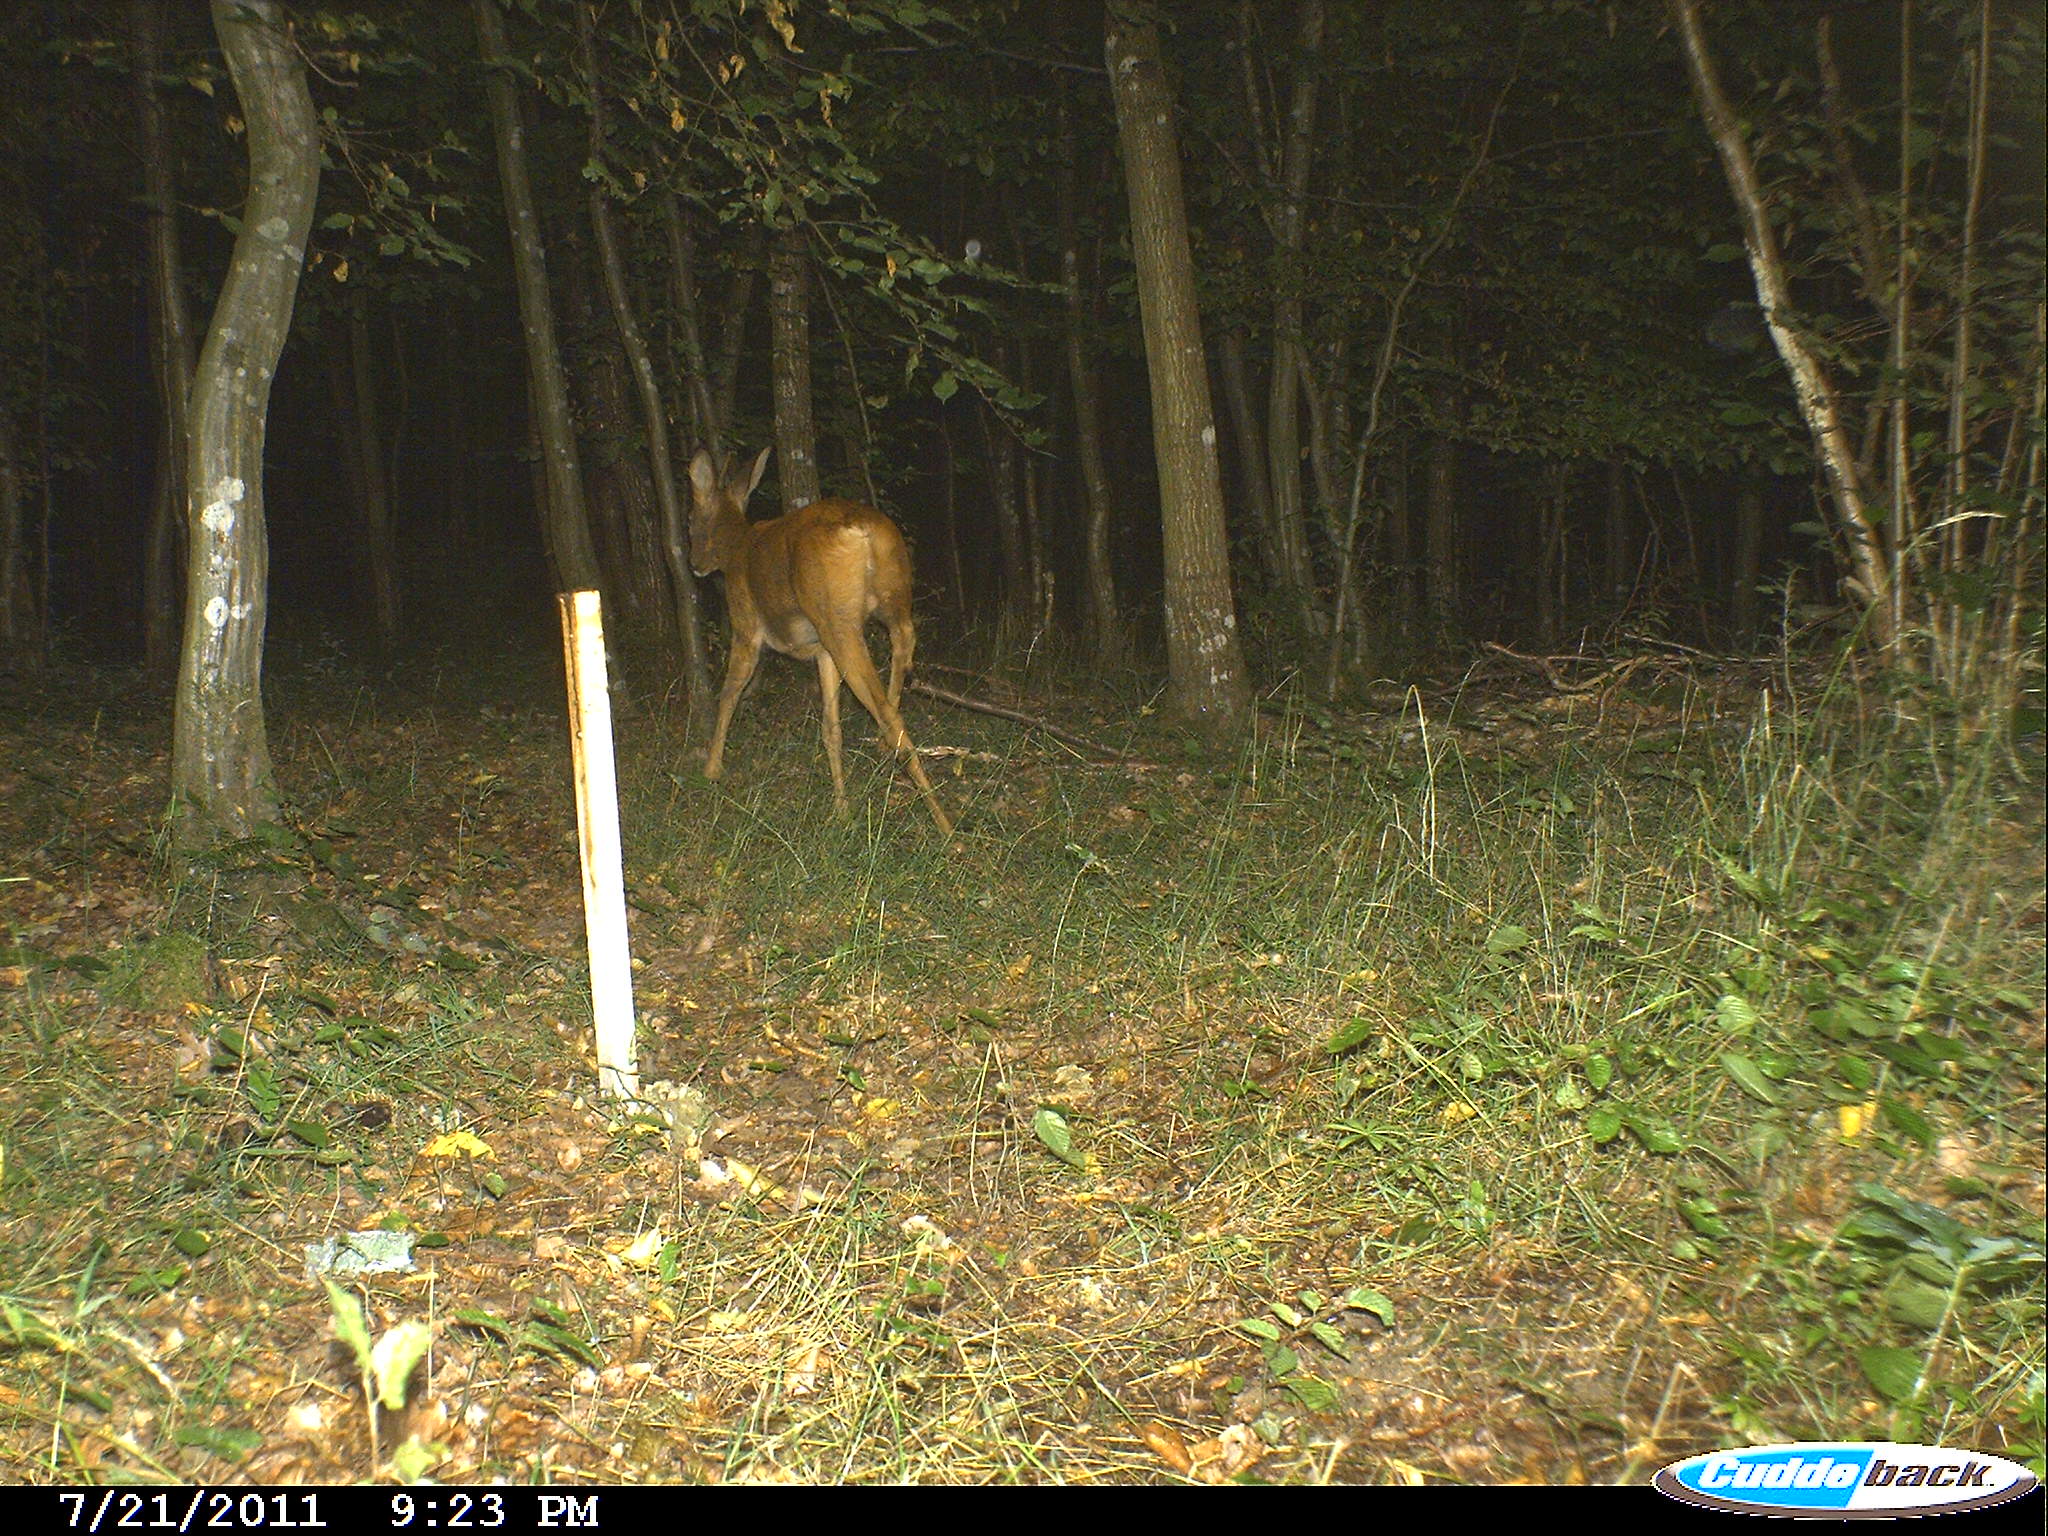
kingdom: Animalia
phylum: Chordata
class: Mammalia
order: Artiodactyla
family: Cervidae
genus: Capreolus
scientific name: Capreolus capreolus
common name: Western roe deer
